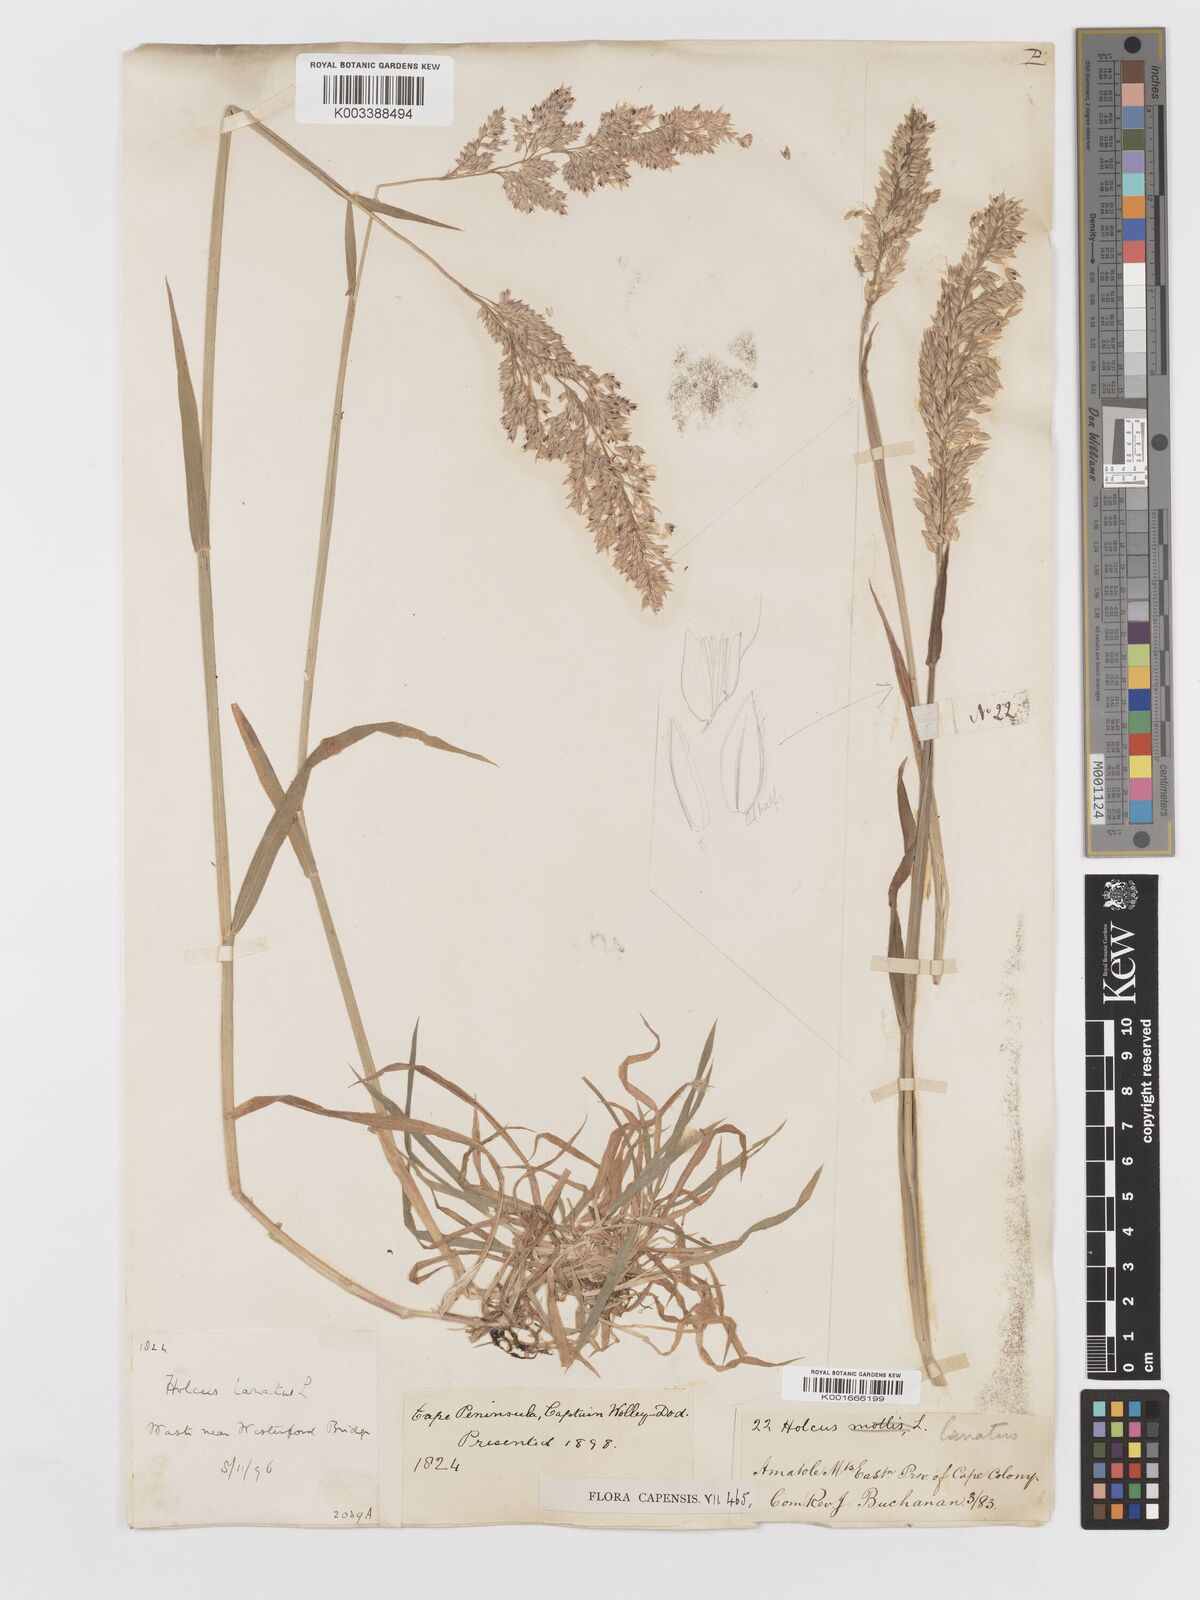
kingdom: Plantae
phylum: Tracheophyta
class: Liliopsida
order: Poales
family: Poaceae
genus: Holcus
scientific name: Holcus lanatus
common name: Yorkshire-fog
